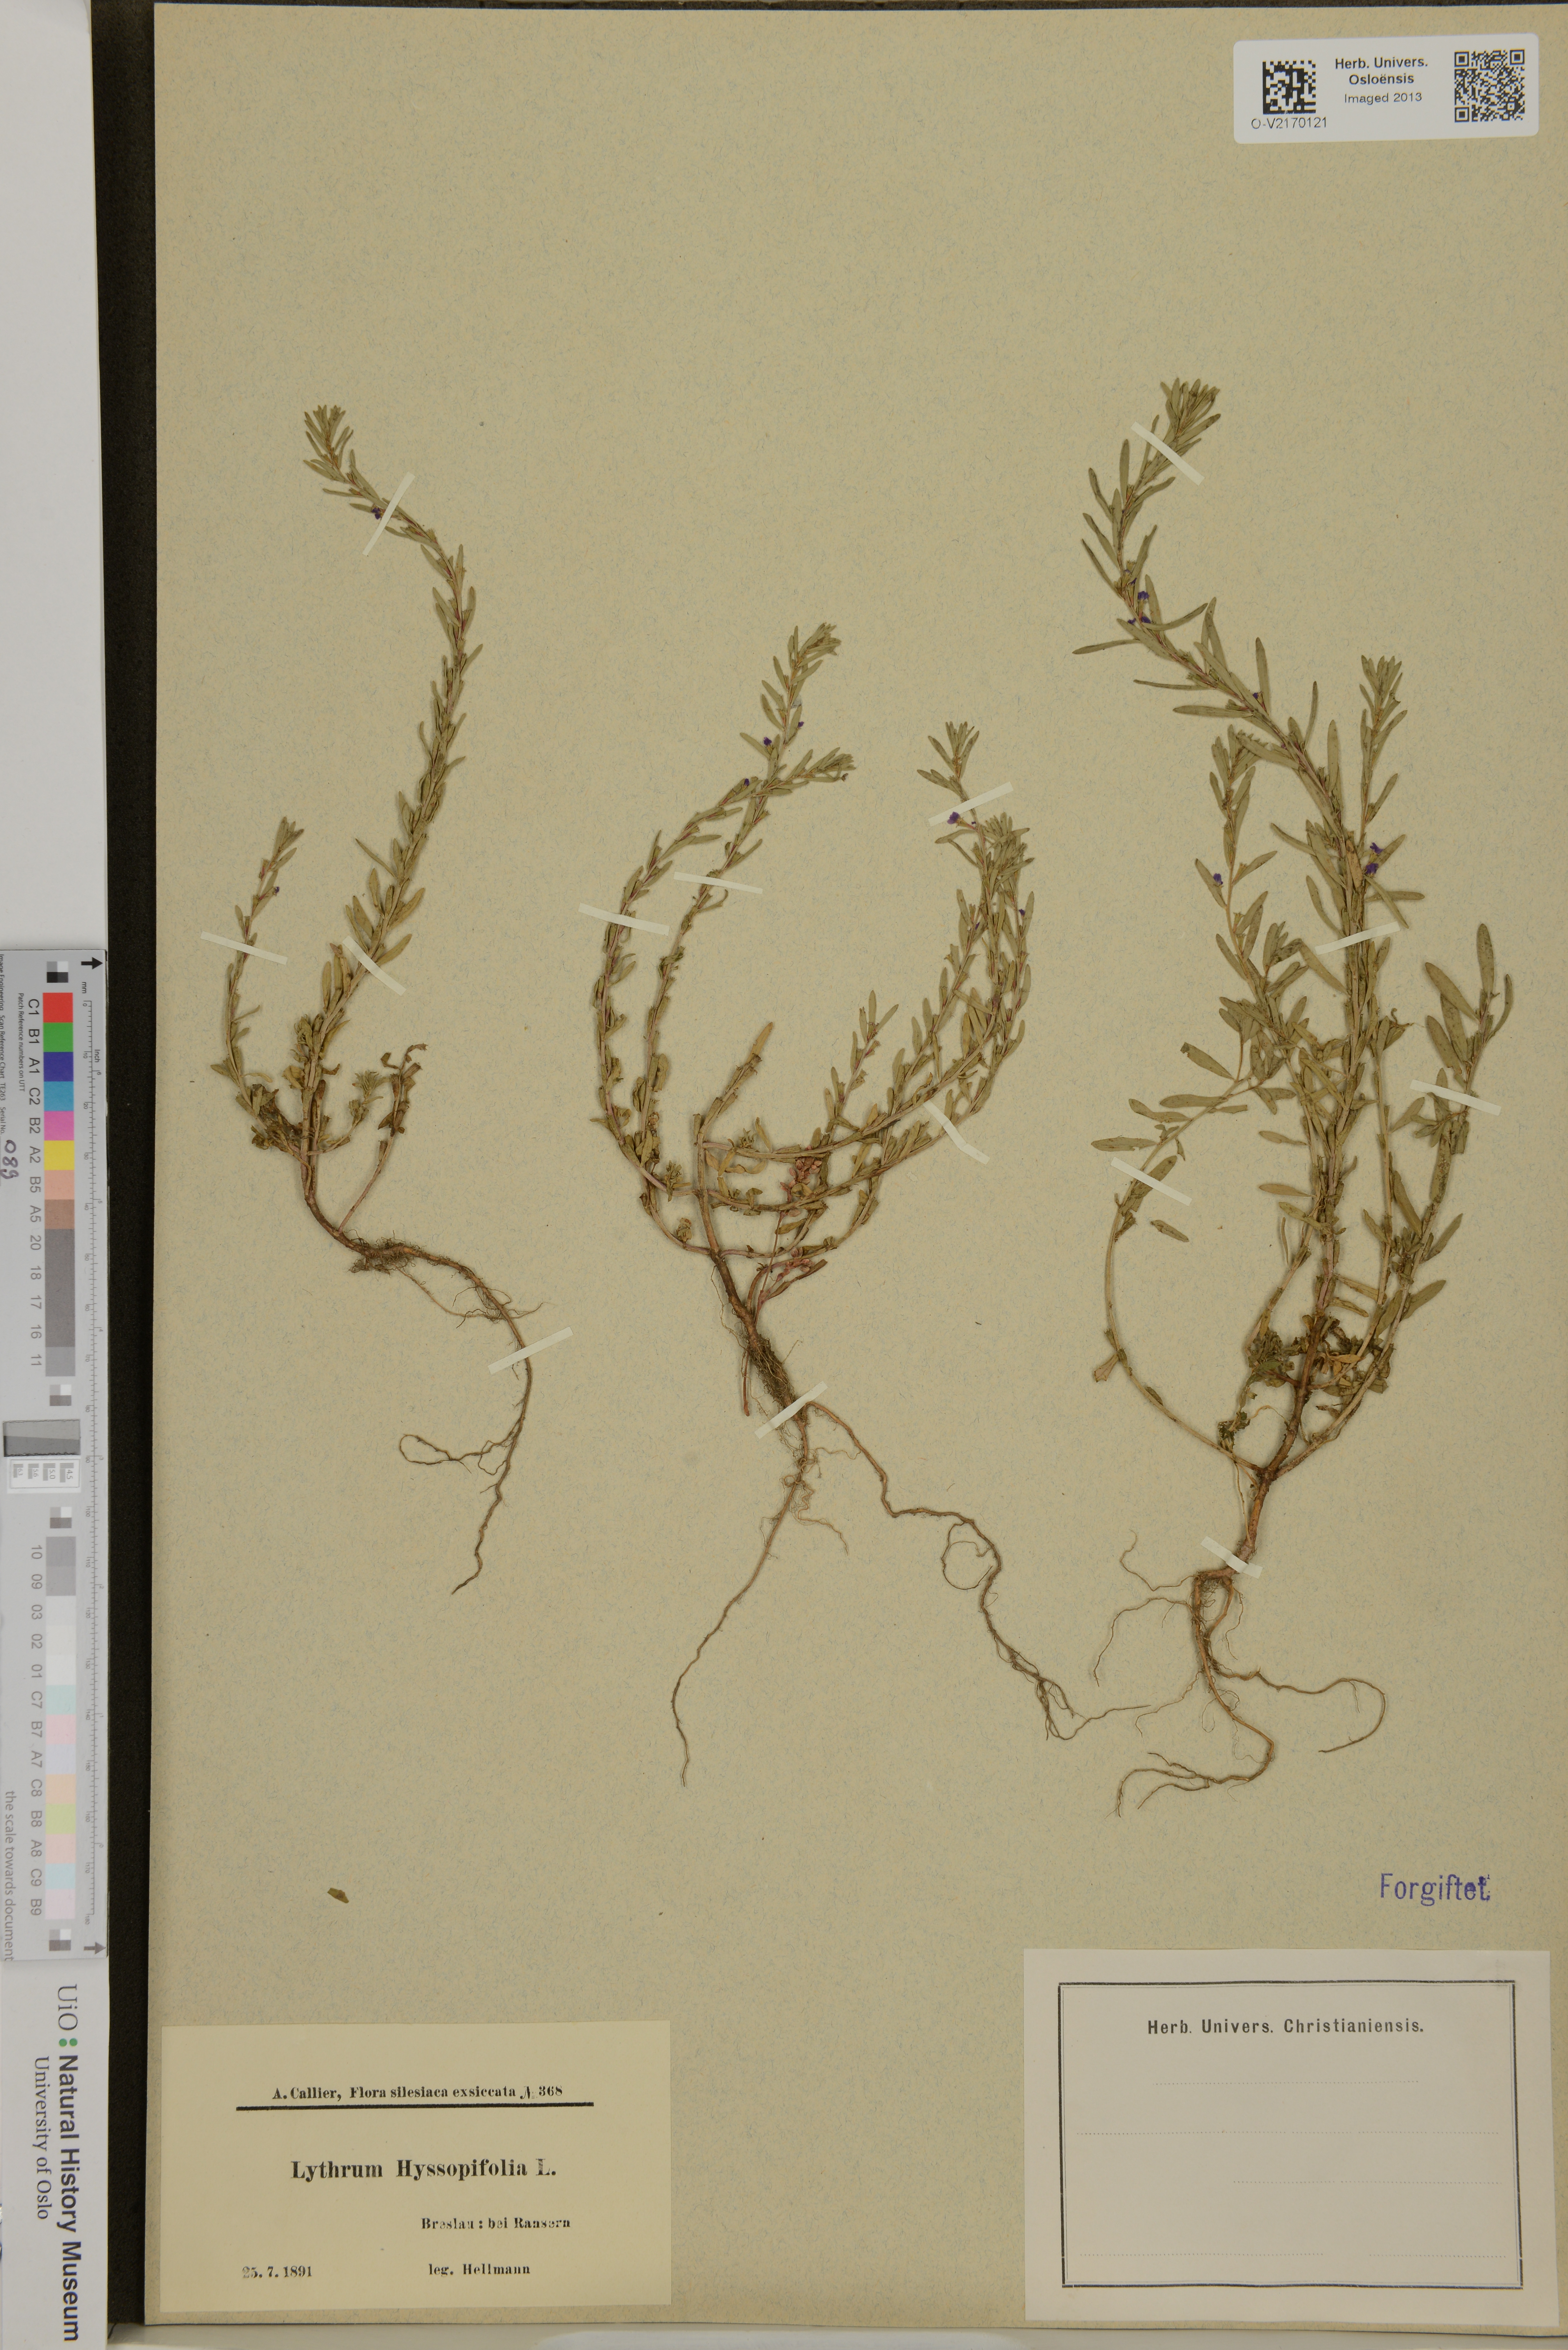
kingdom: Plantae
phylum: Tracheophyta
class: Magnoliopsida
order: Myrtales
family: Lythraceae
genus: Lythrum
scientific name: Lythrum hyssopifolia
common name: Grass-poly
